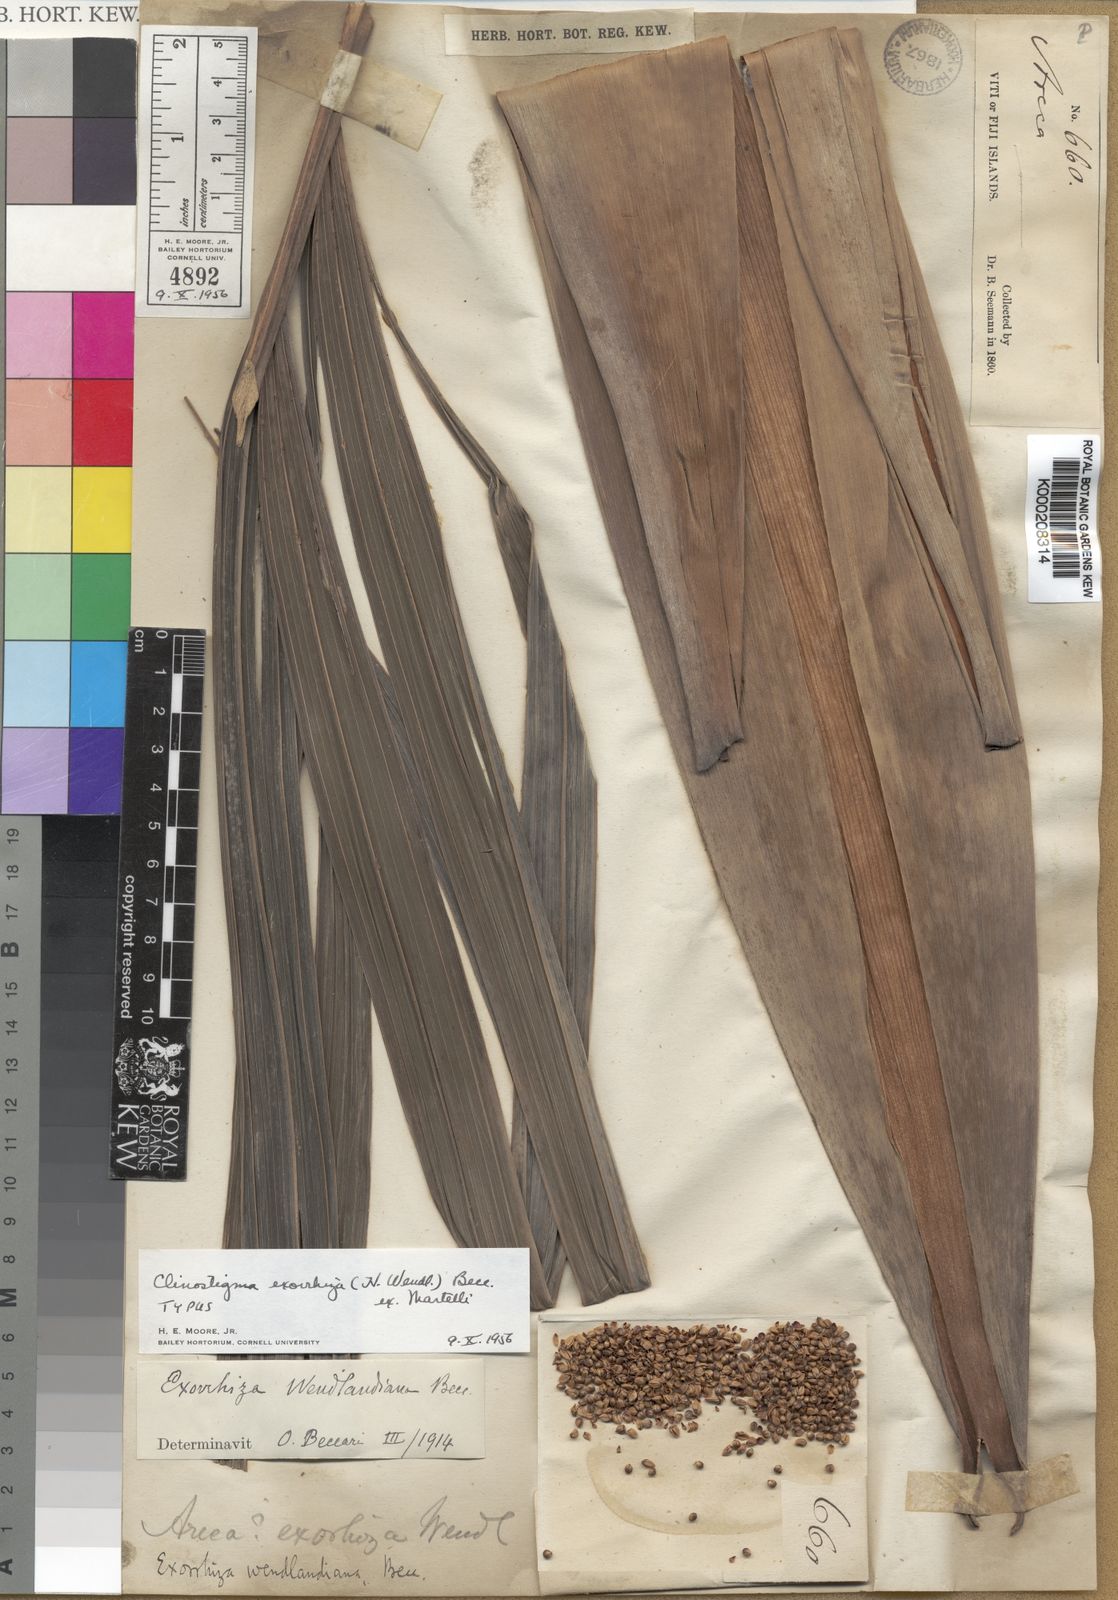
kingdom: Plantae
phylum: Tracheophyta
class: Liliopsida
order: Arecales
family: Arecaceae
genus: Clinostigma
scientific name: Clinostigma haerestigma
